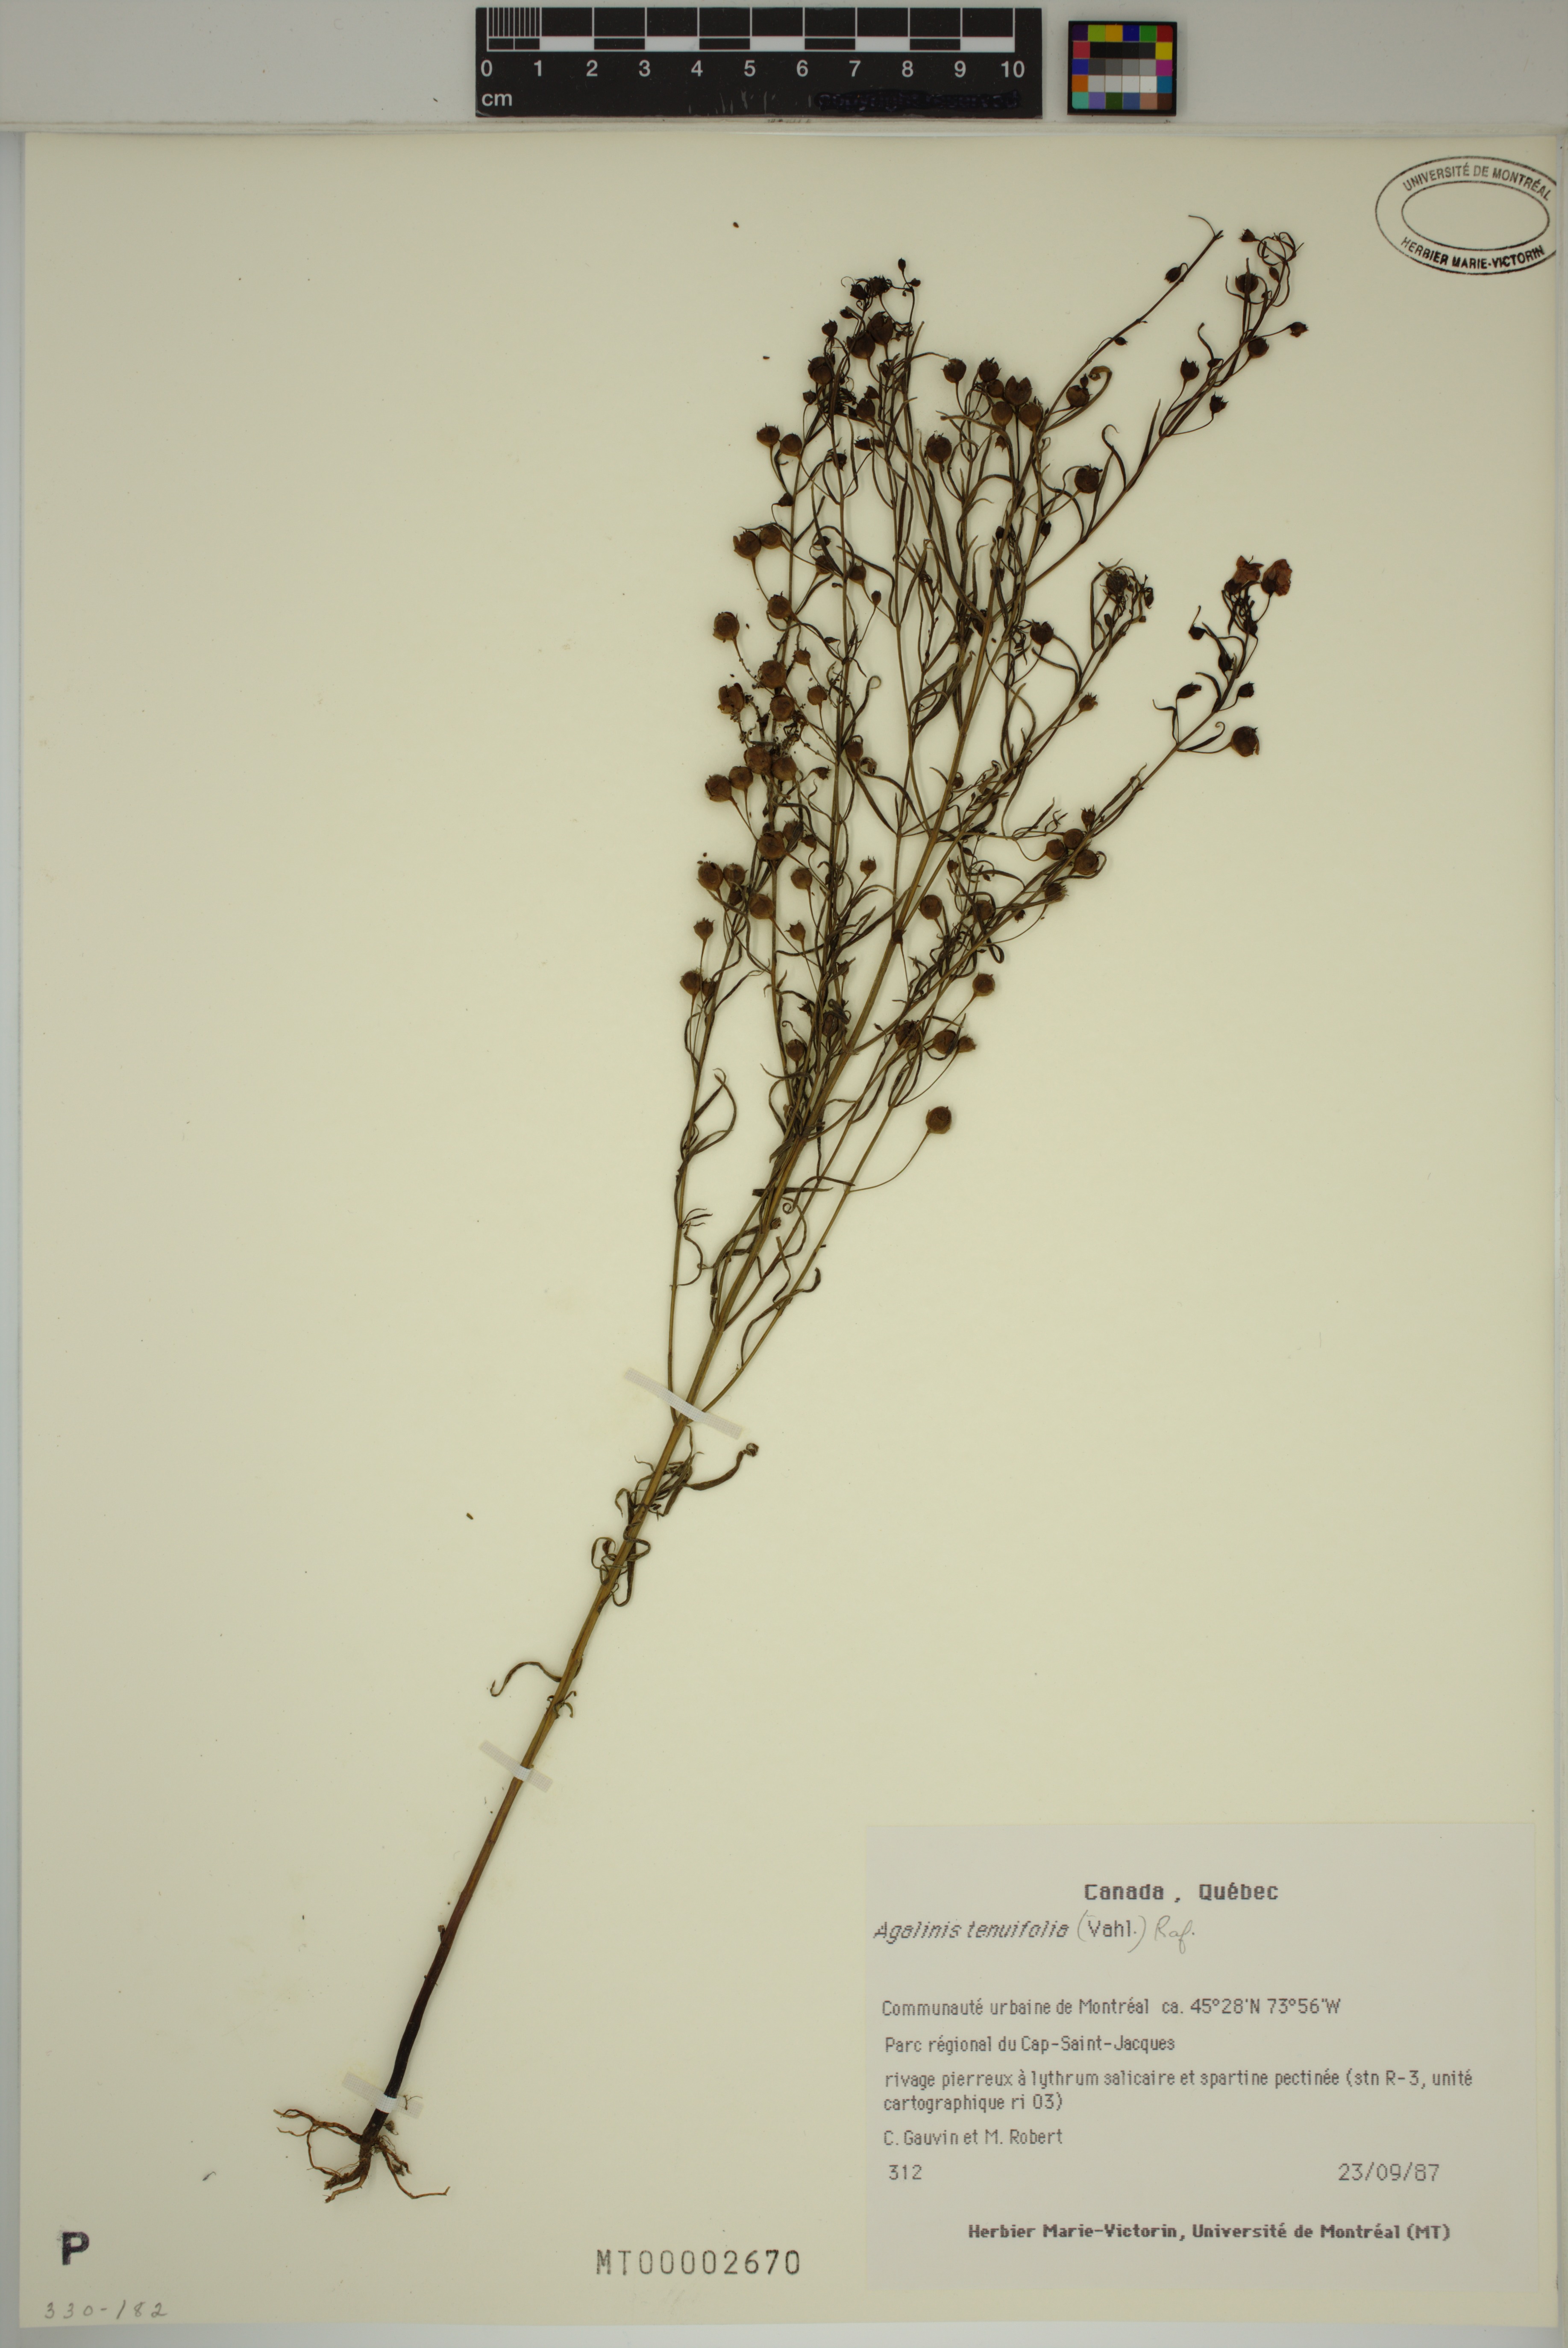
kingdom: Plantae
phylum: Tracheophyta
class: Magnoliopsida
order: Lamiales
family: Orobanchaceae
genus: Agalinis
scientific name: Agalinis tenuifolia
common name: Slender agalinis
